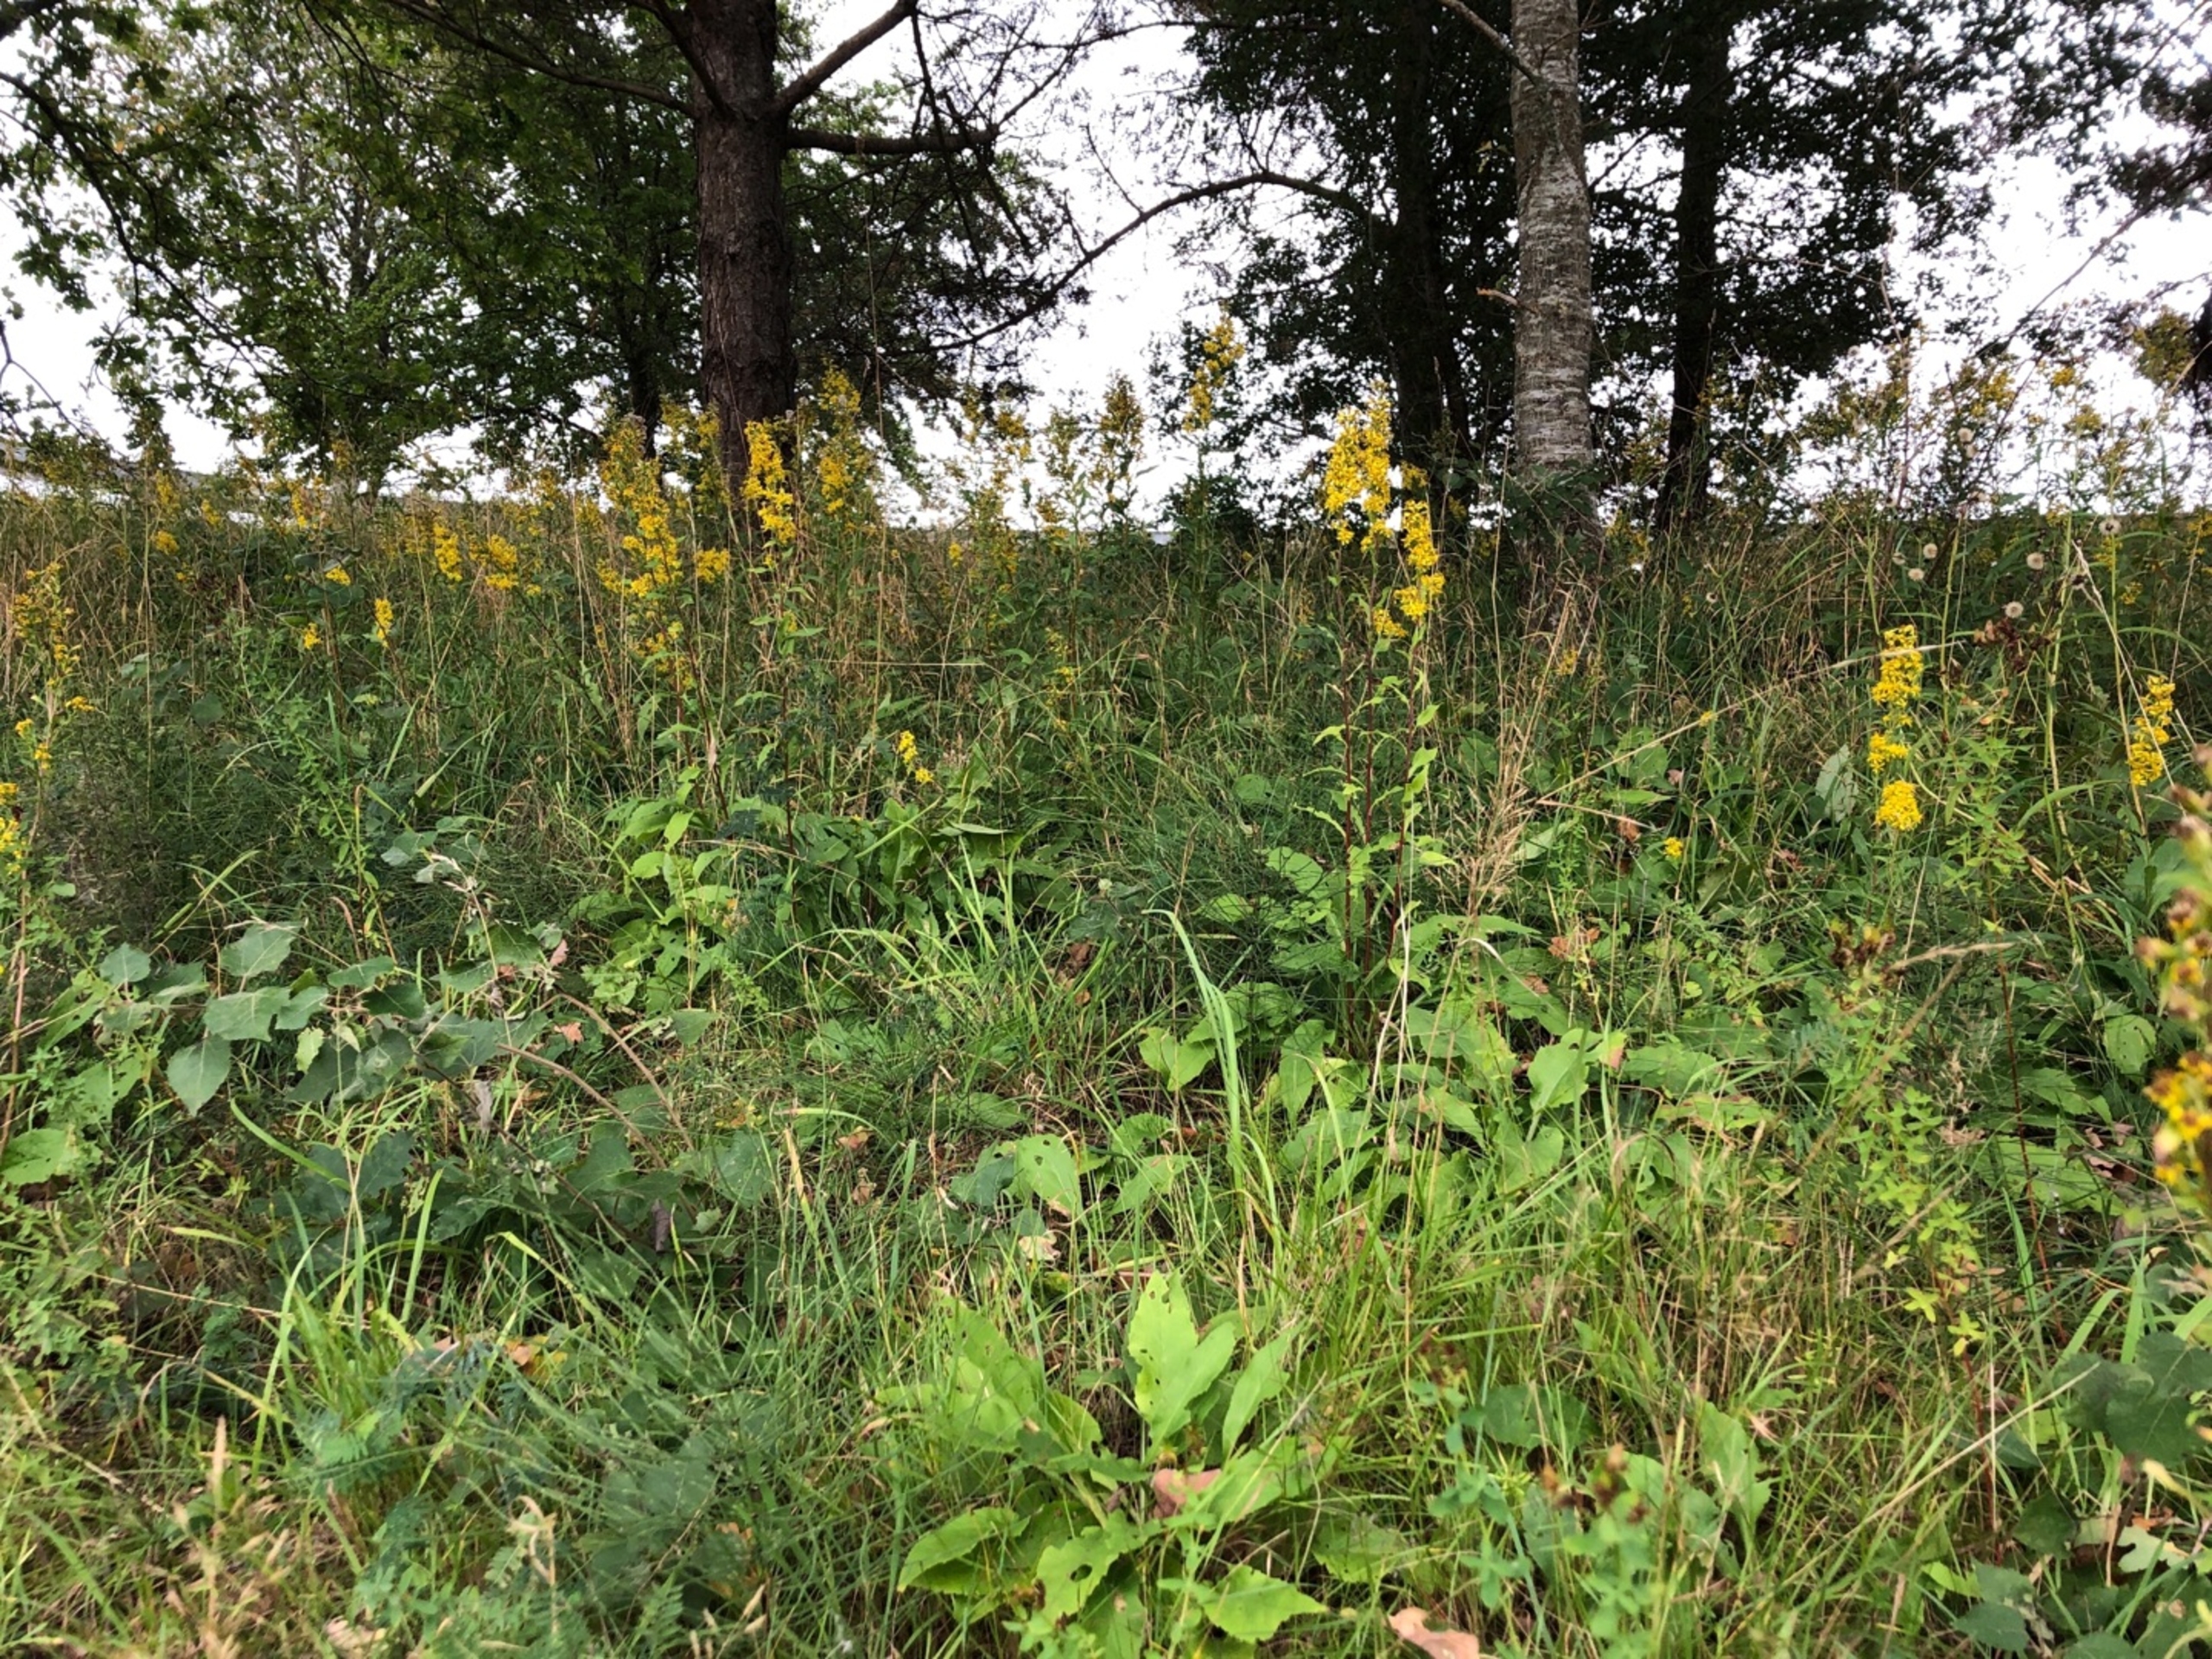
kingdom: Plantae
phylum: Tracheophyta
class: Magnoliopsida
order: Asterales
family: Asteraceae
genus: Solidago
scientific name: Solidago virgaurea
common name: Almindelig gyldenris
